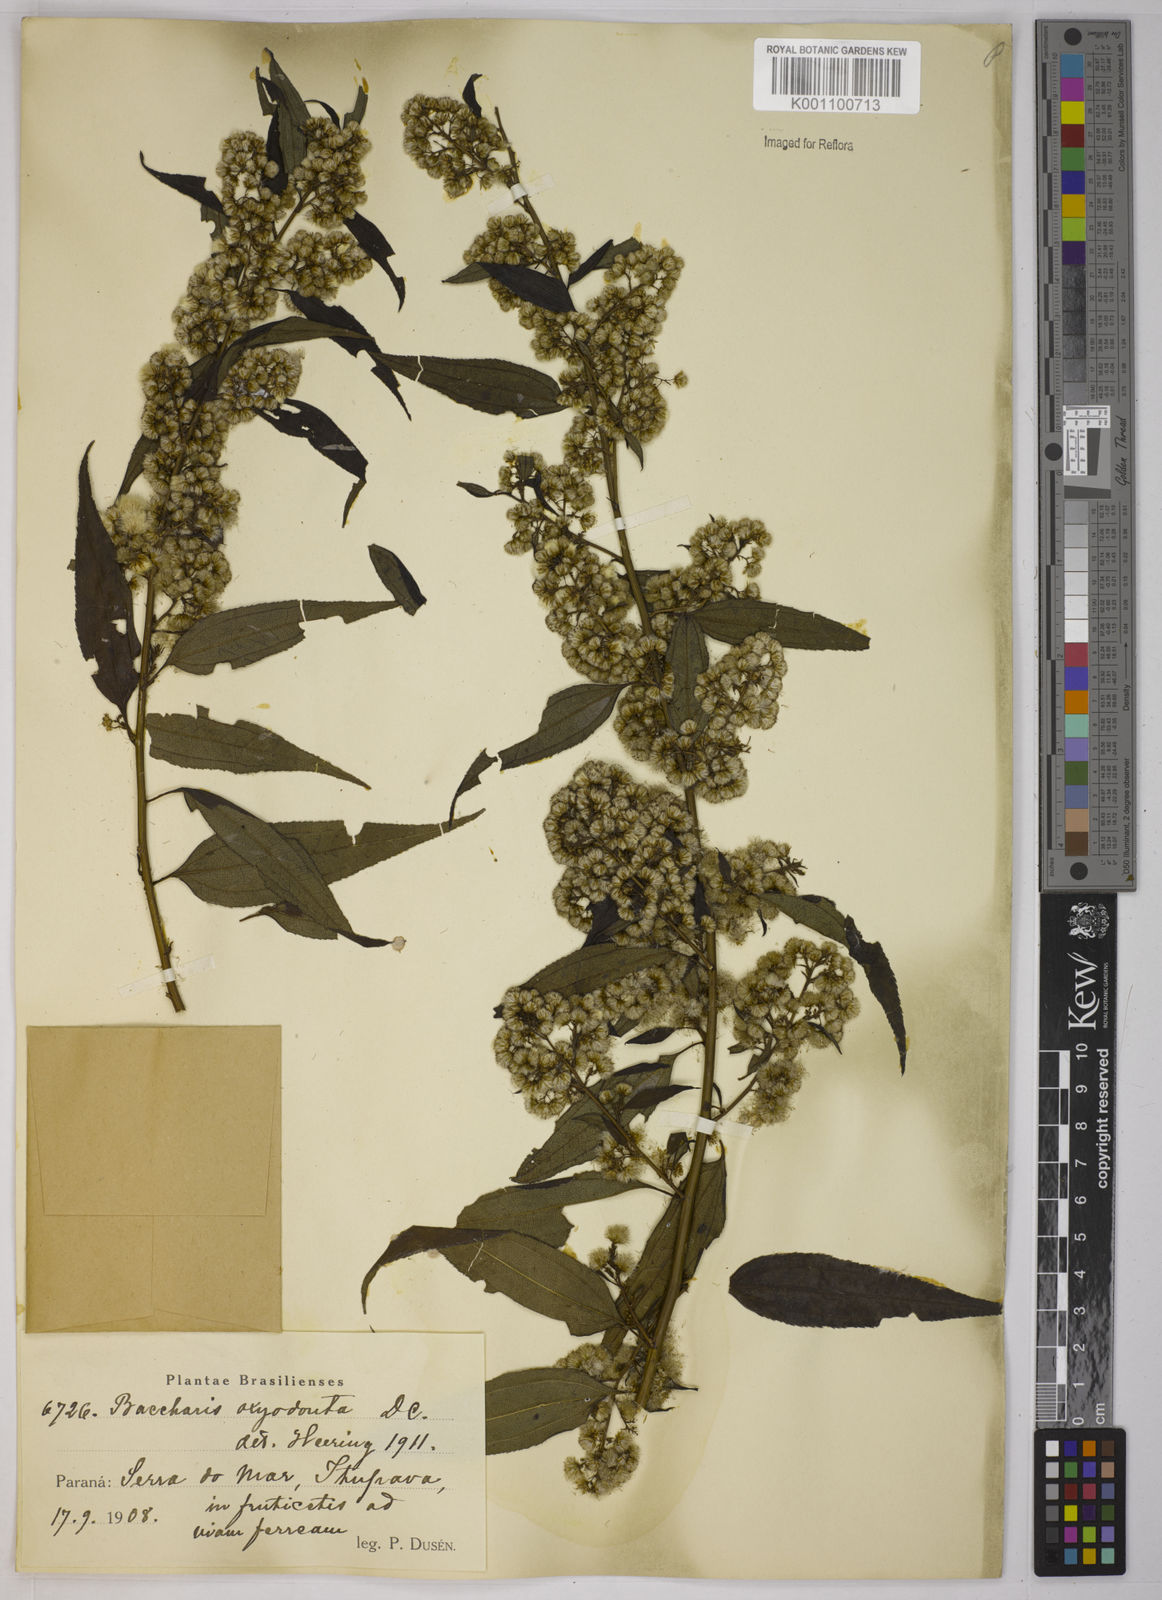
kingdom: Plantae
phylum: Tracheophyta
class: Magnoliopsida
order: Asterales
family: Asteraceae
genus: Baccharis
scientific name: Baccharis oxyodonta
